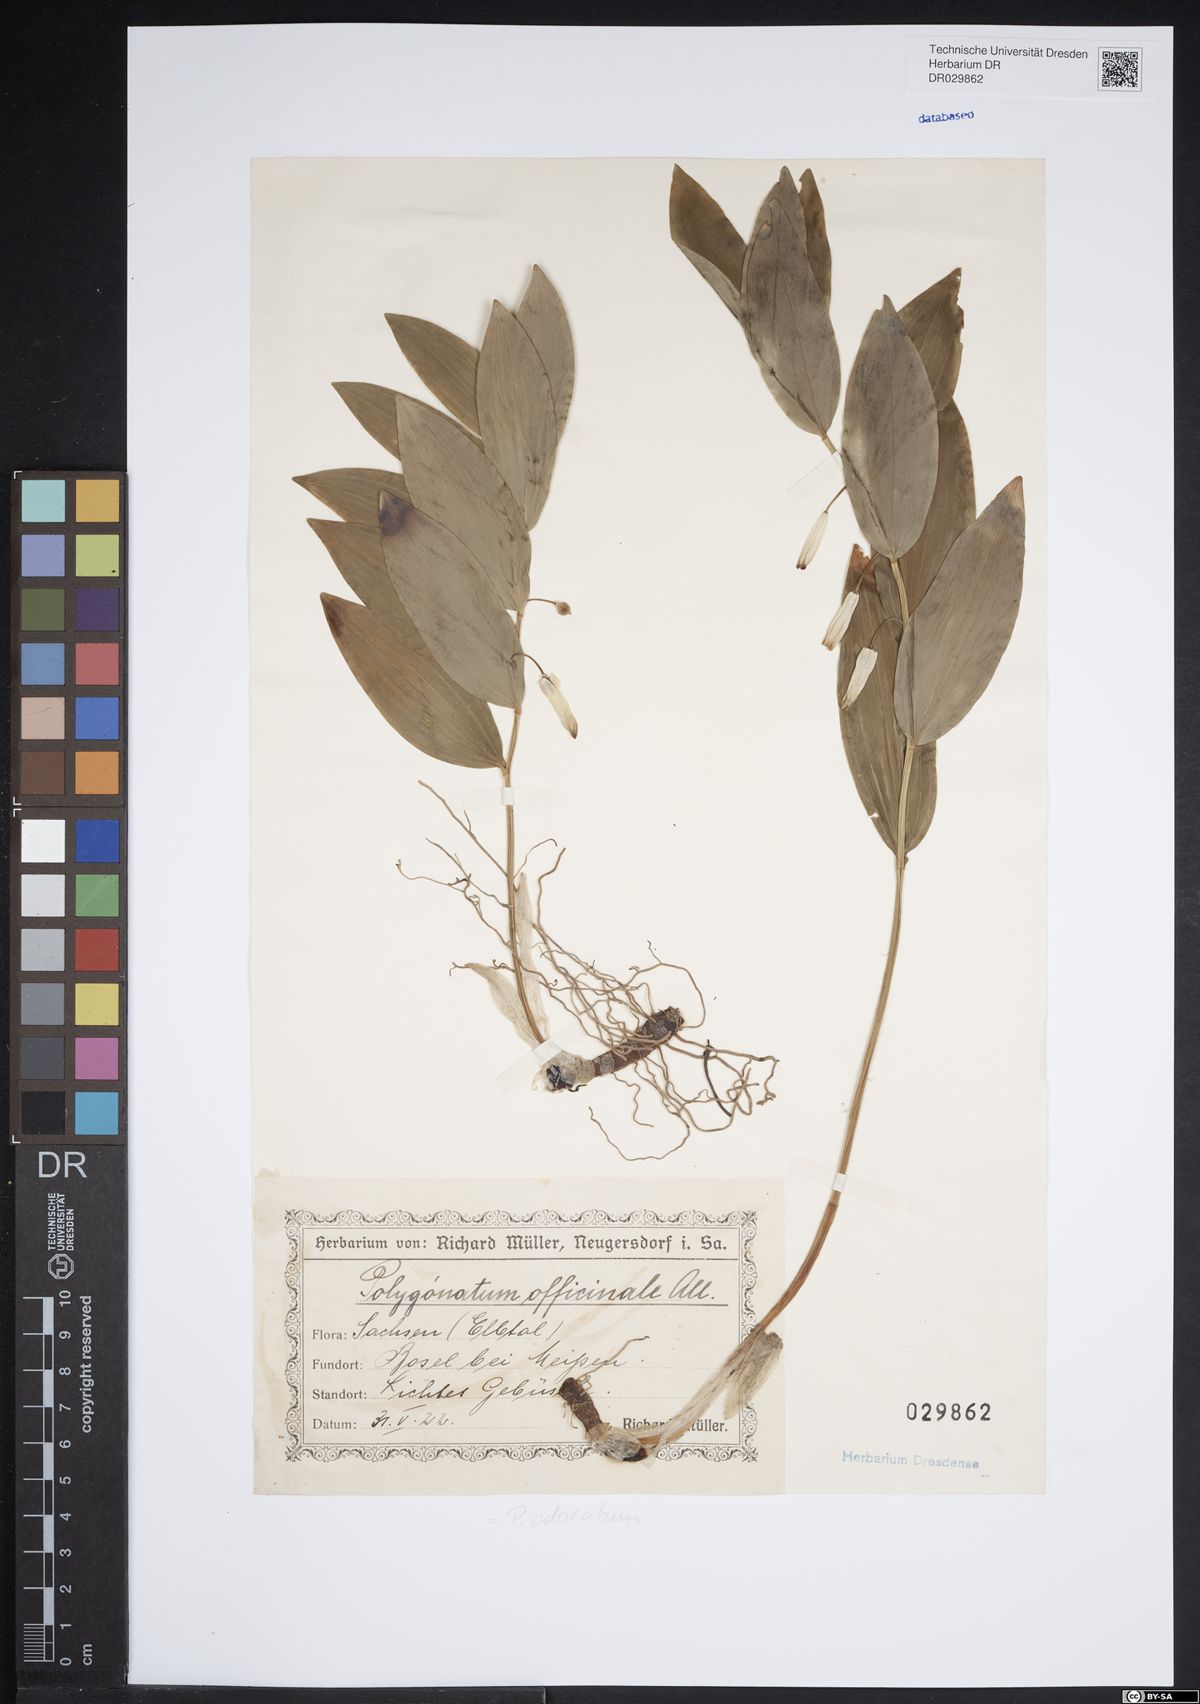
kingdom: Plantae
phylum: Tracheophyta
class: Liliopsida
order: Asparagales
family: Asparagaceae
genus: Polygonatum
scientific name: Polygonatum odoratum
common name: Angular solomon's-seal
